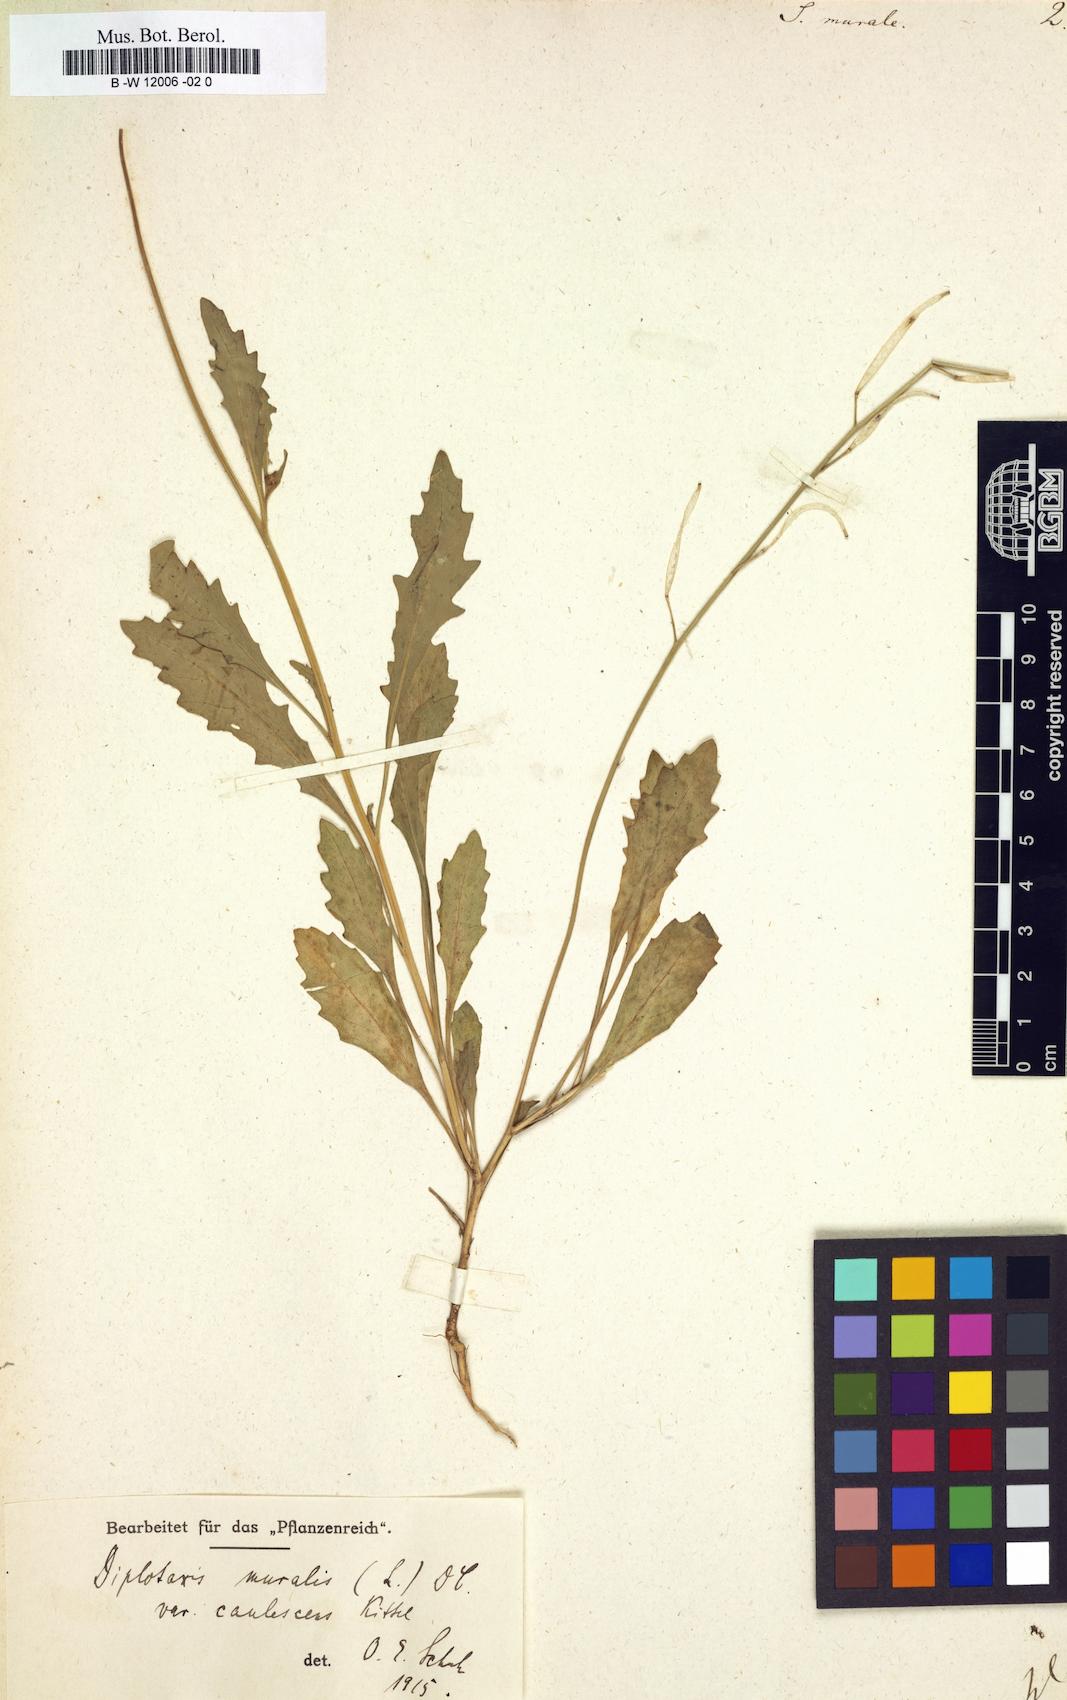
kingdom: Plantae
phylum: Tracheophyta
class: Magnoliopsida
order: Brassicales
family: Brassicaceae
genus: Sisymbrium
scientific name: Sisymbrium murale
